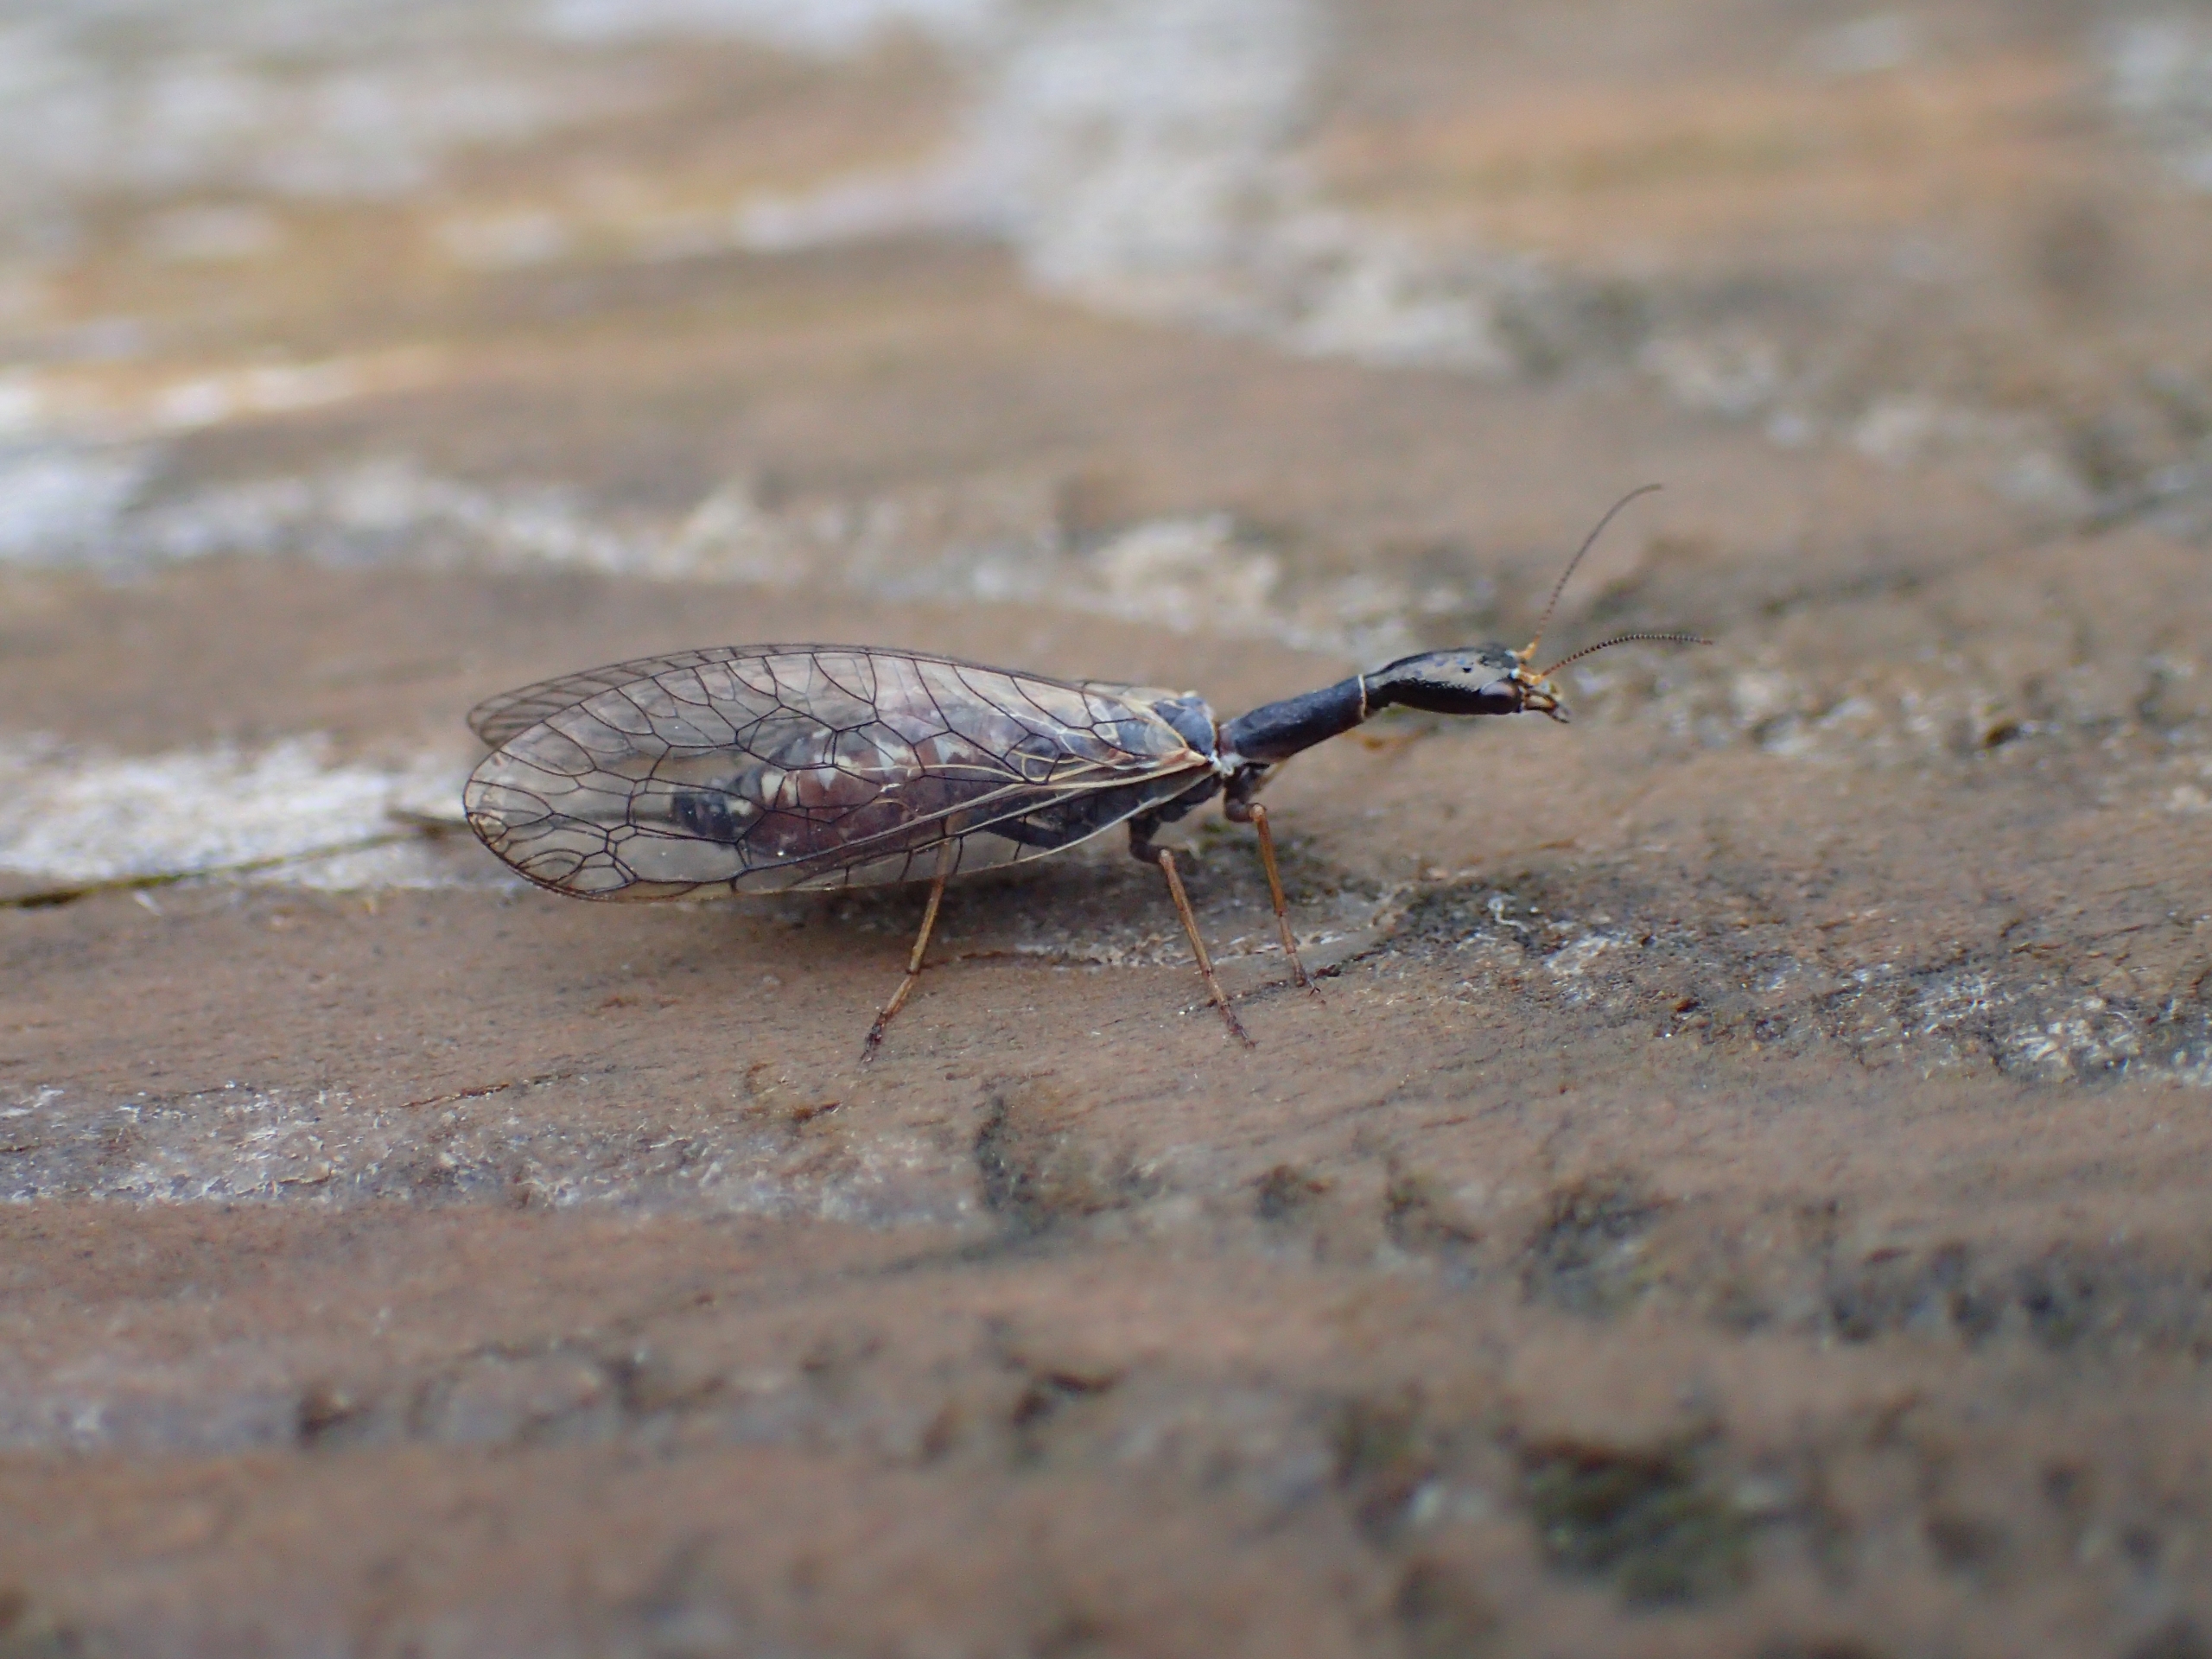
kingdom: Animalia
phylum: Arthropoda
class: Insecta
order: Raphidioptera
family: Raphidiidae
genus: Xanthostigma
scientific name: Xanthostigma xanthostigma
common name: Lille kamelhalsflue
